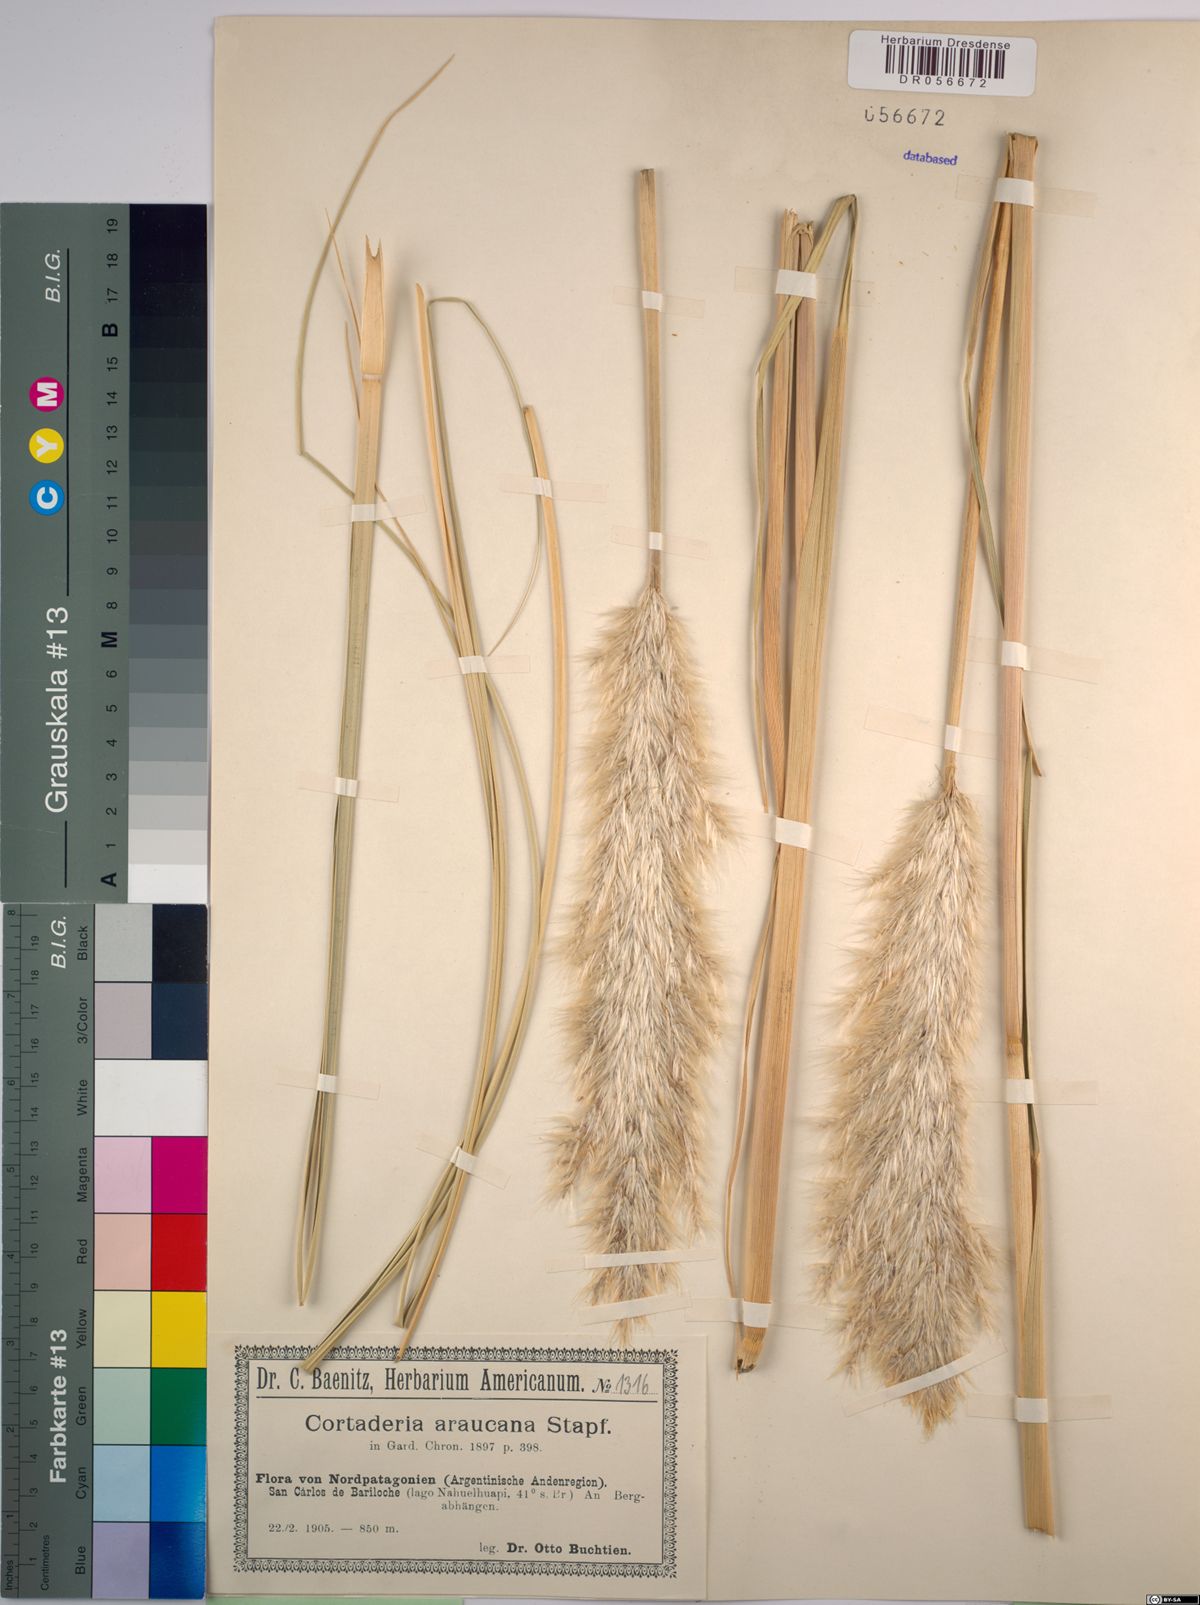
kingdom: Plantae
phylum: Tracheophyta
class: Liliopsida
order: Poales
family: Poaceae
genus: Cortaderia
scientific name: Cortaderia araucana
